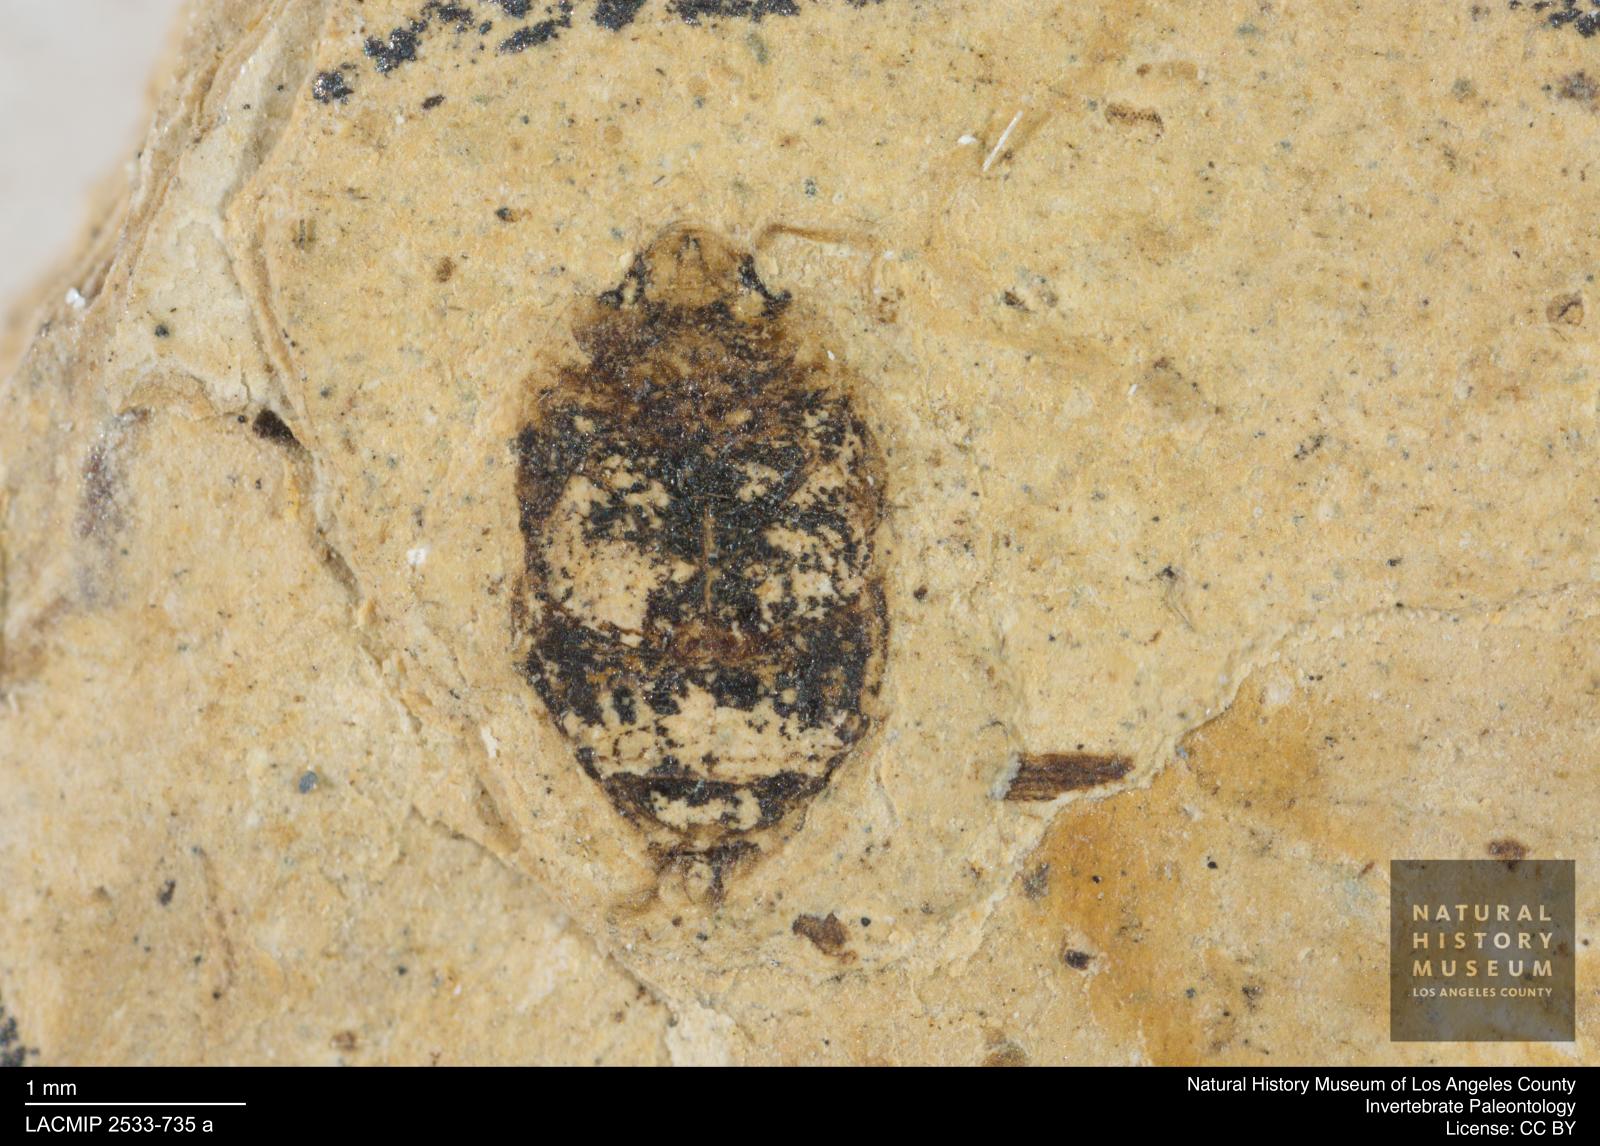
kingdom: Animalia
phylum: Arthropoda
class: Insecta
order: Coleoptera
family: Dytiscidae
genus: Oreodytes
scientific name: Oreodytes cryptolineatus
